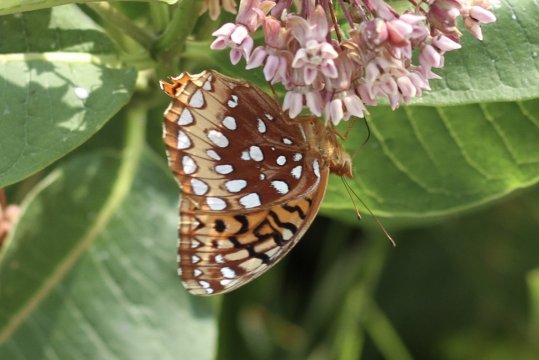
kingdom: Animalia
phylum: Arthropoda
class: Insecta
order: Lepidoptera
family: Nymphalidae
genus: Speyeria
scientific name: Speyeria cybele
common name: Great Spangled Fritillary
